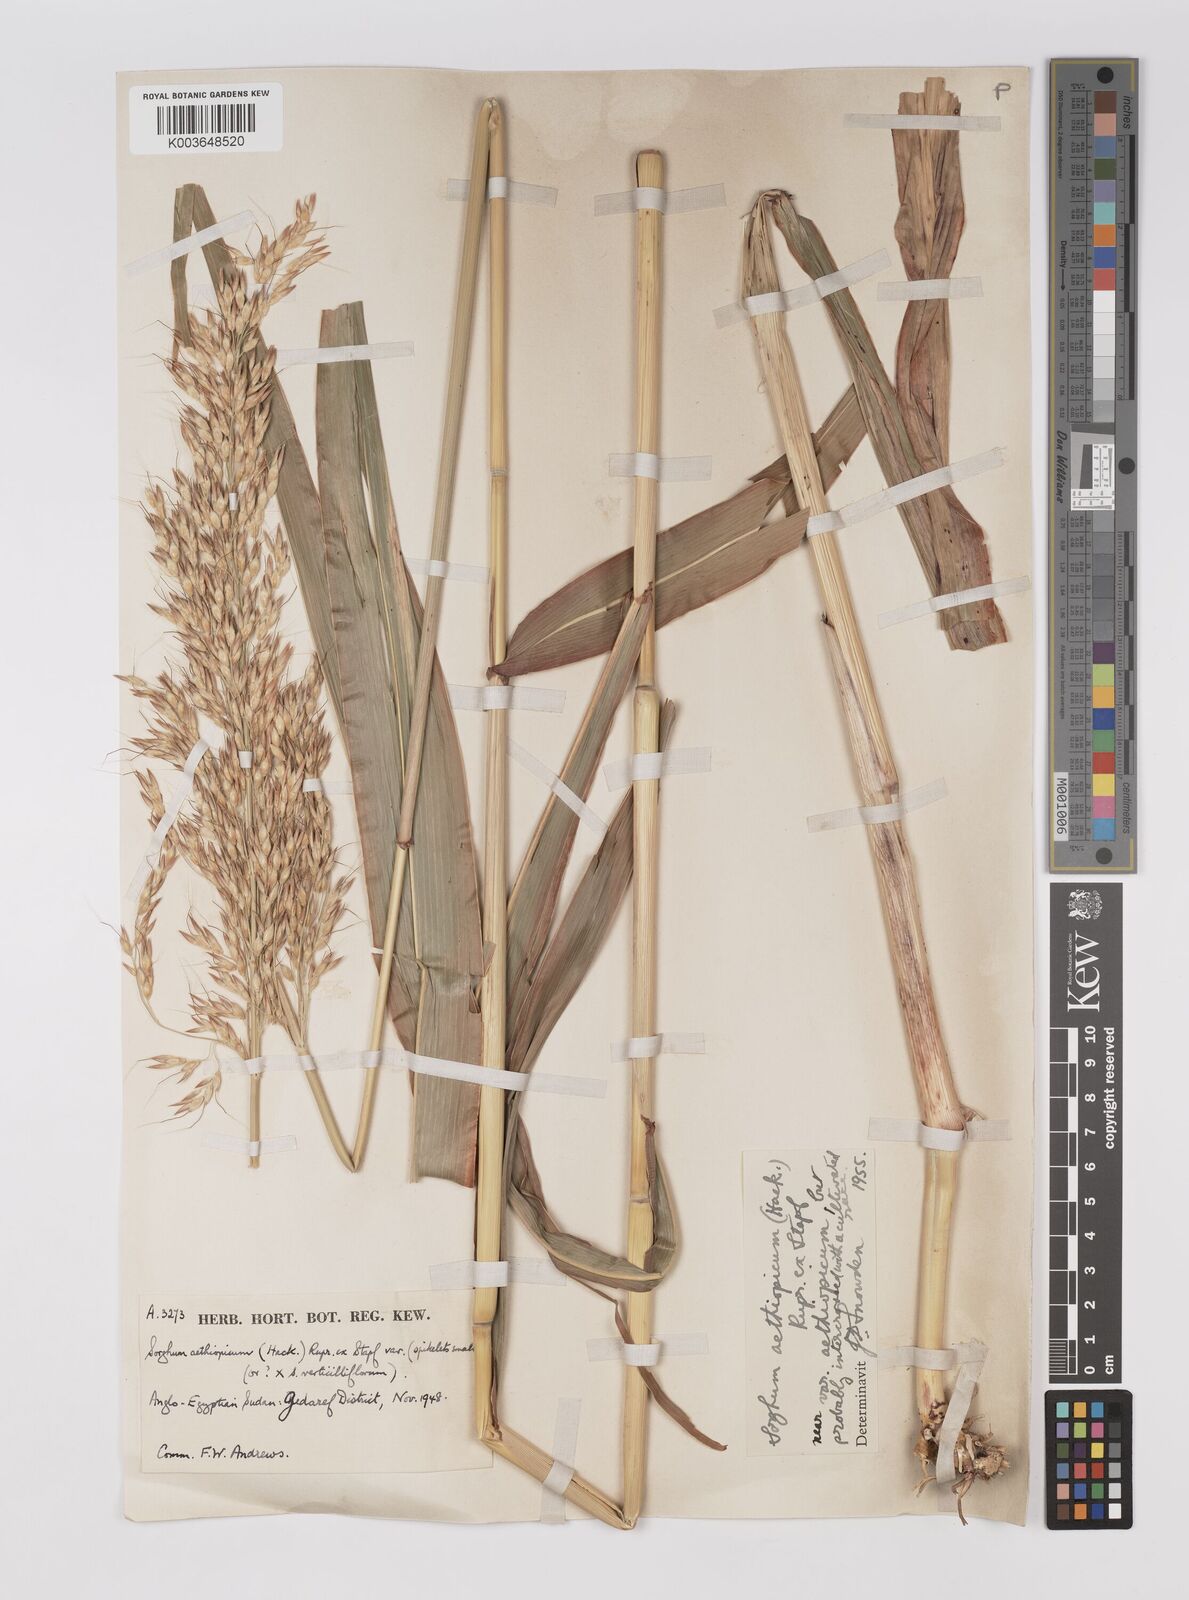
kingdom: Plantae
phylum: Tracheophyta
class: Liliopsida
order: Poales
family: Poaceae
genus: Sorghum
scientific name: Sorghum drummondii
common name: Sudangrass
